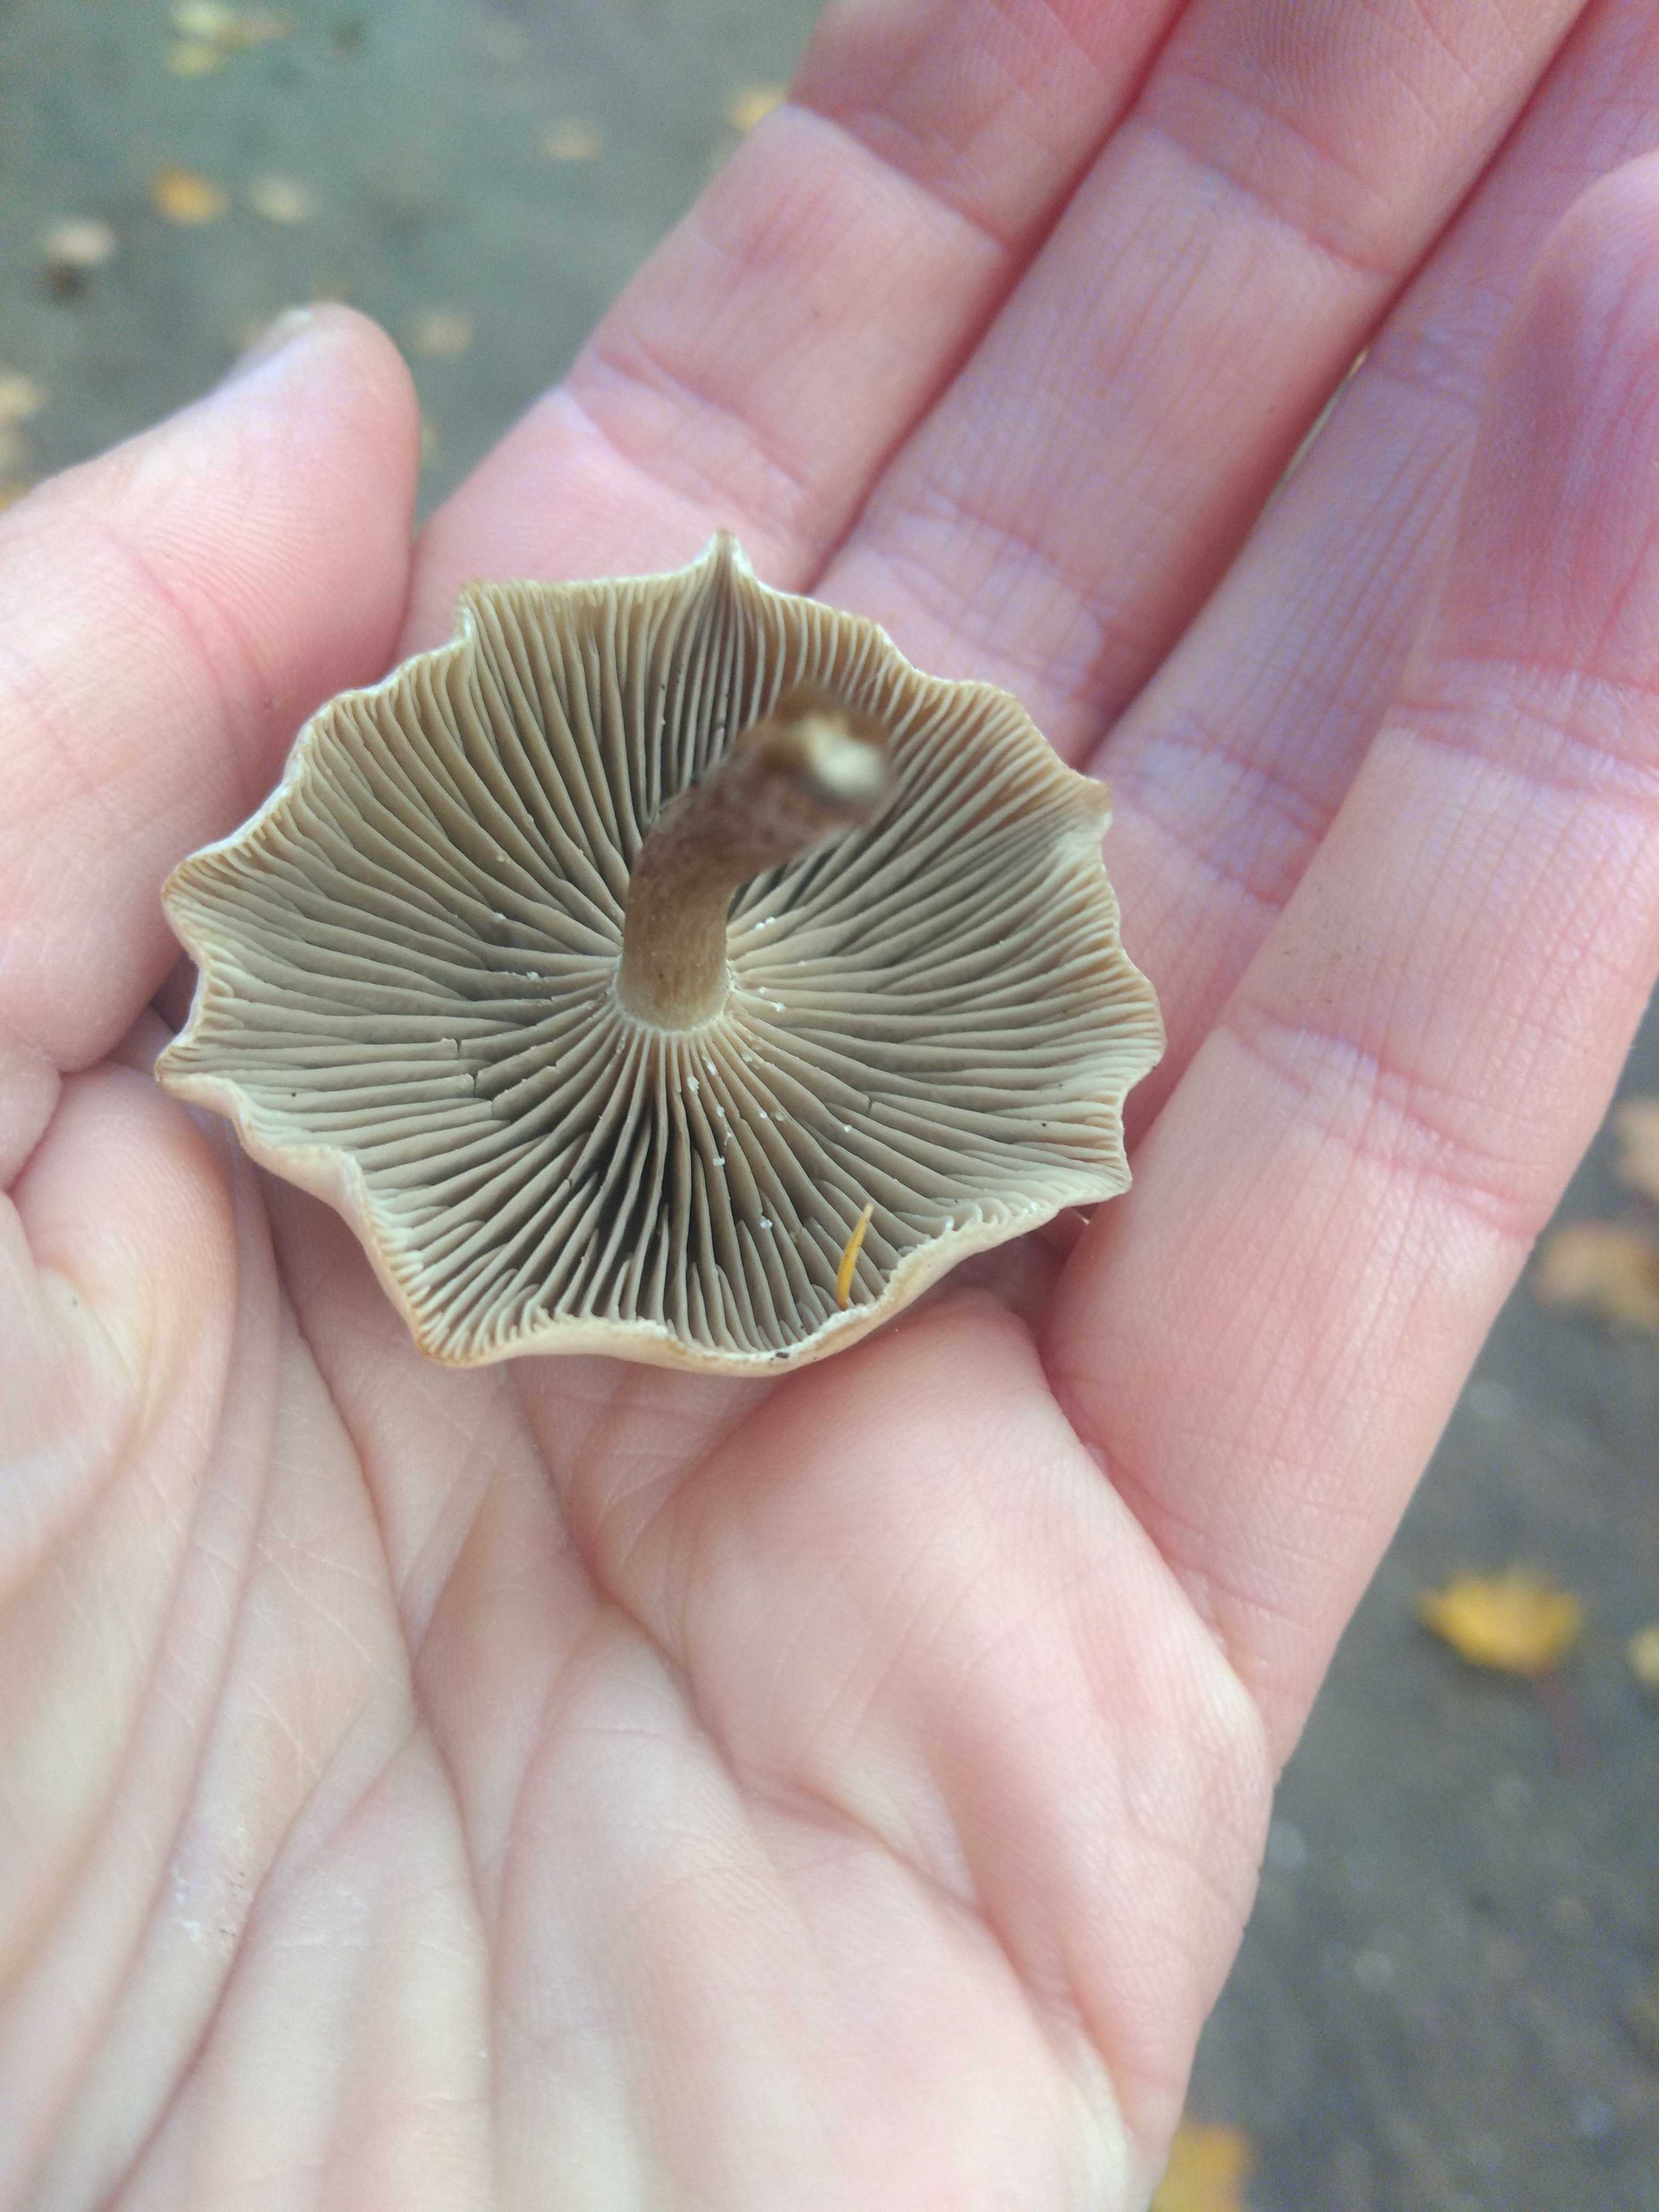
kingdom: Fungi
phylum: Basidiomycota
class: Agaricomycetes
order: Agaricales
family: Tricholomataceae
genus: Clitocybe
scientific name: Clitocybe
